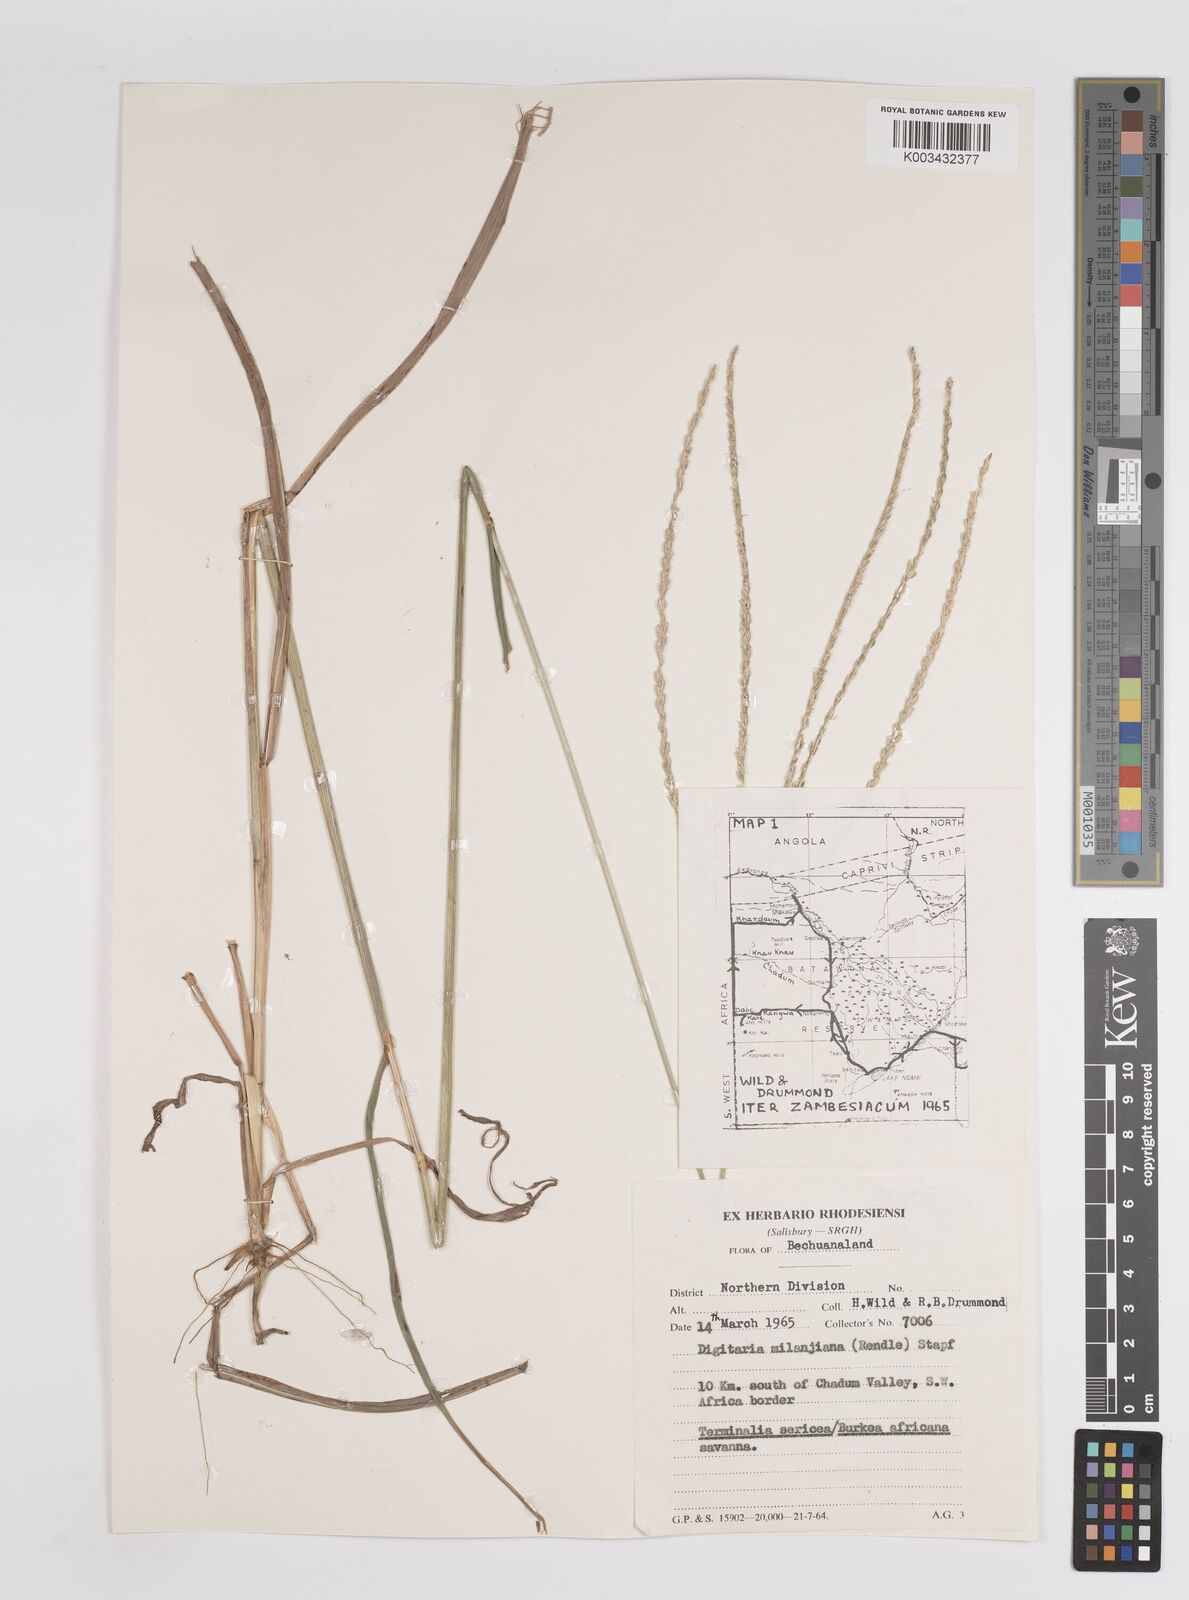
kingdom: Plantae
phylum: Tracheophyta
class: Liliopsida
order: Poales
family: Poaceae
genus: Digitaria
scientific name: Digitaria eriantha
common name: Digitgrass
